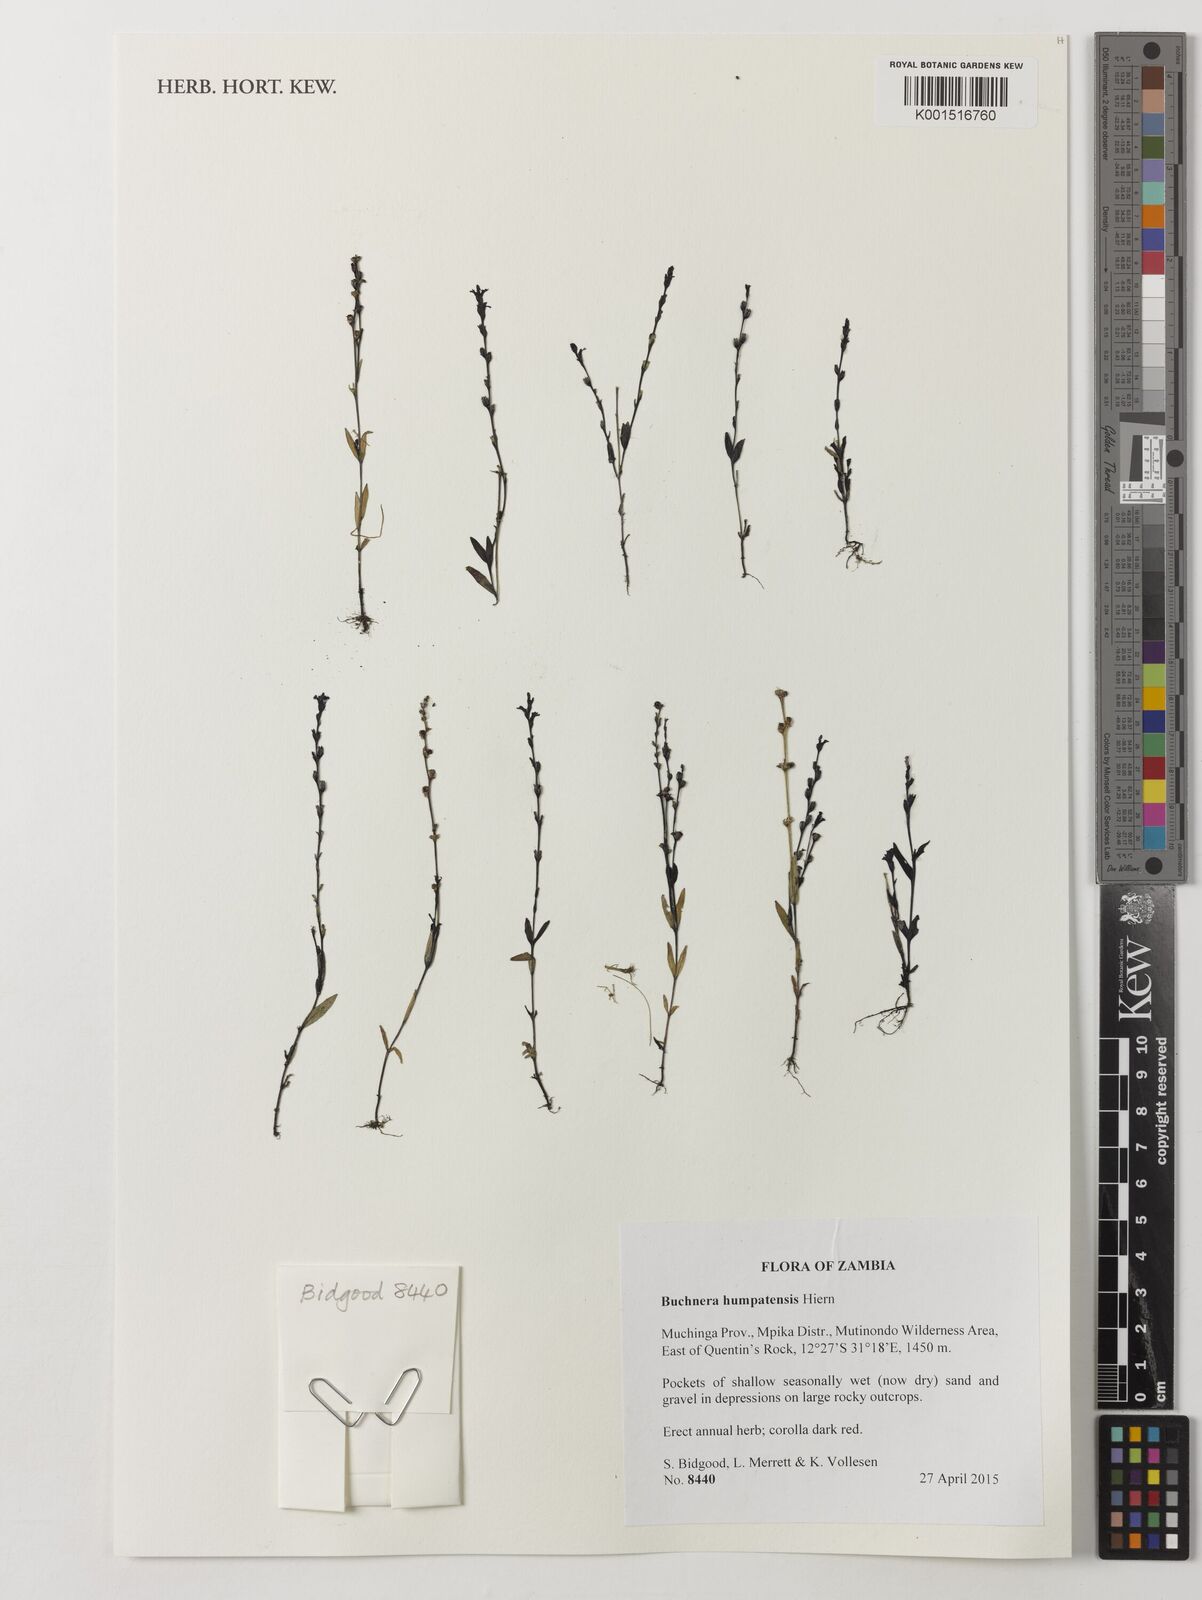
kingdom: Plantae
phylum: Tracheophyta
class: Magnoliopsida
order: Lamiales
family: Orobanchaceae
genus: Buchnera
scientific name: Buchnera humpatensis
